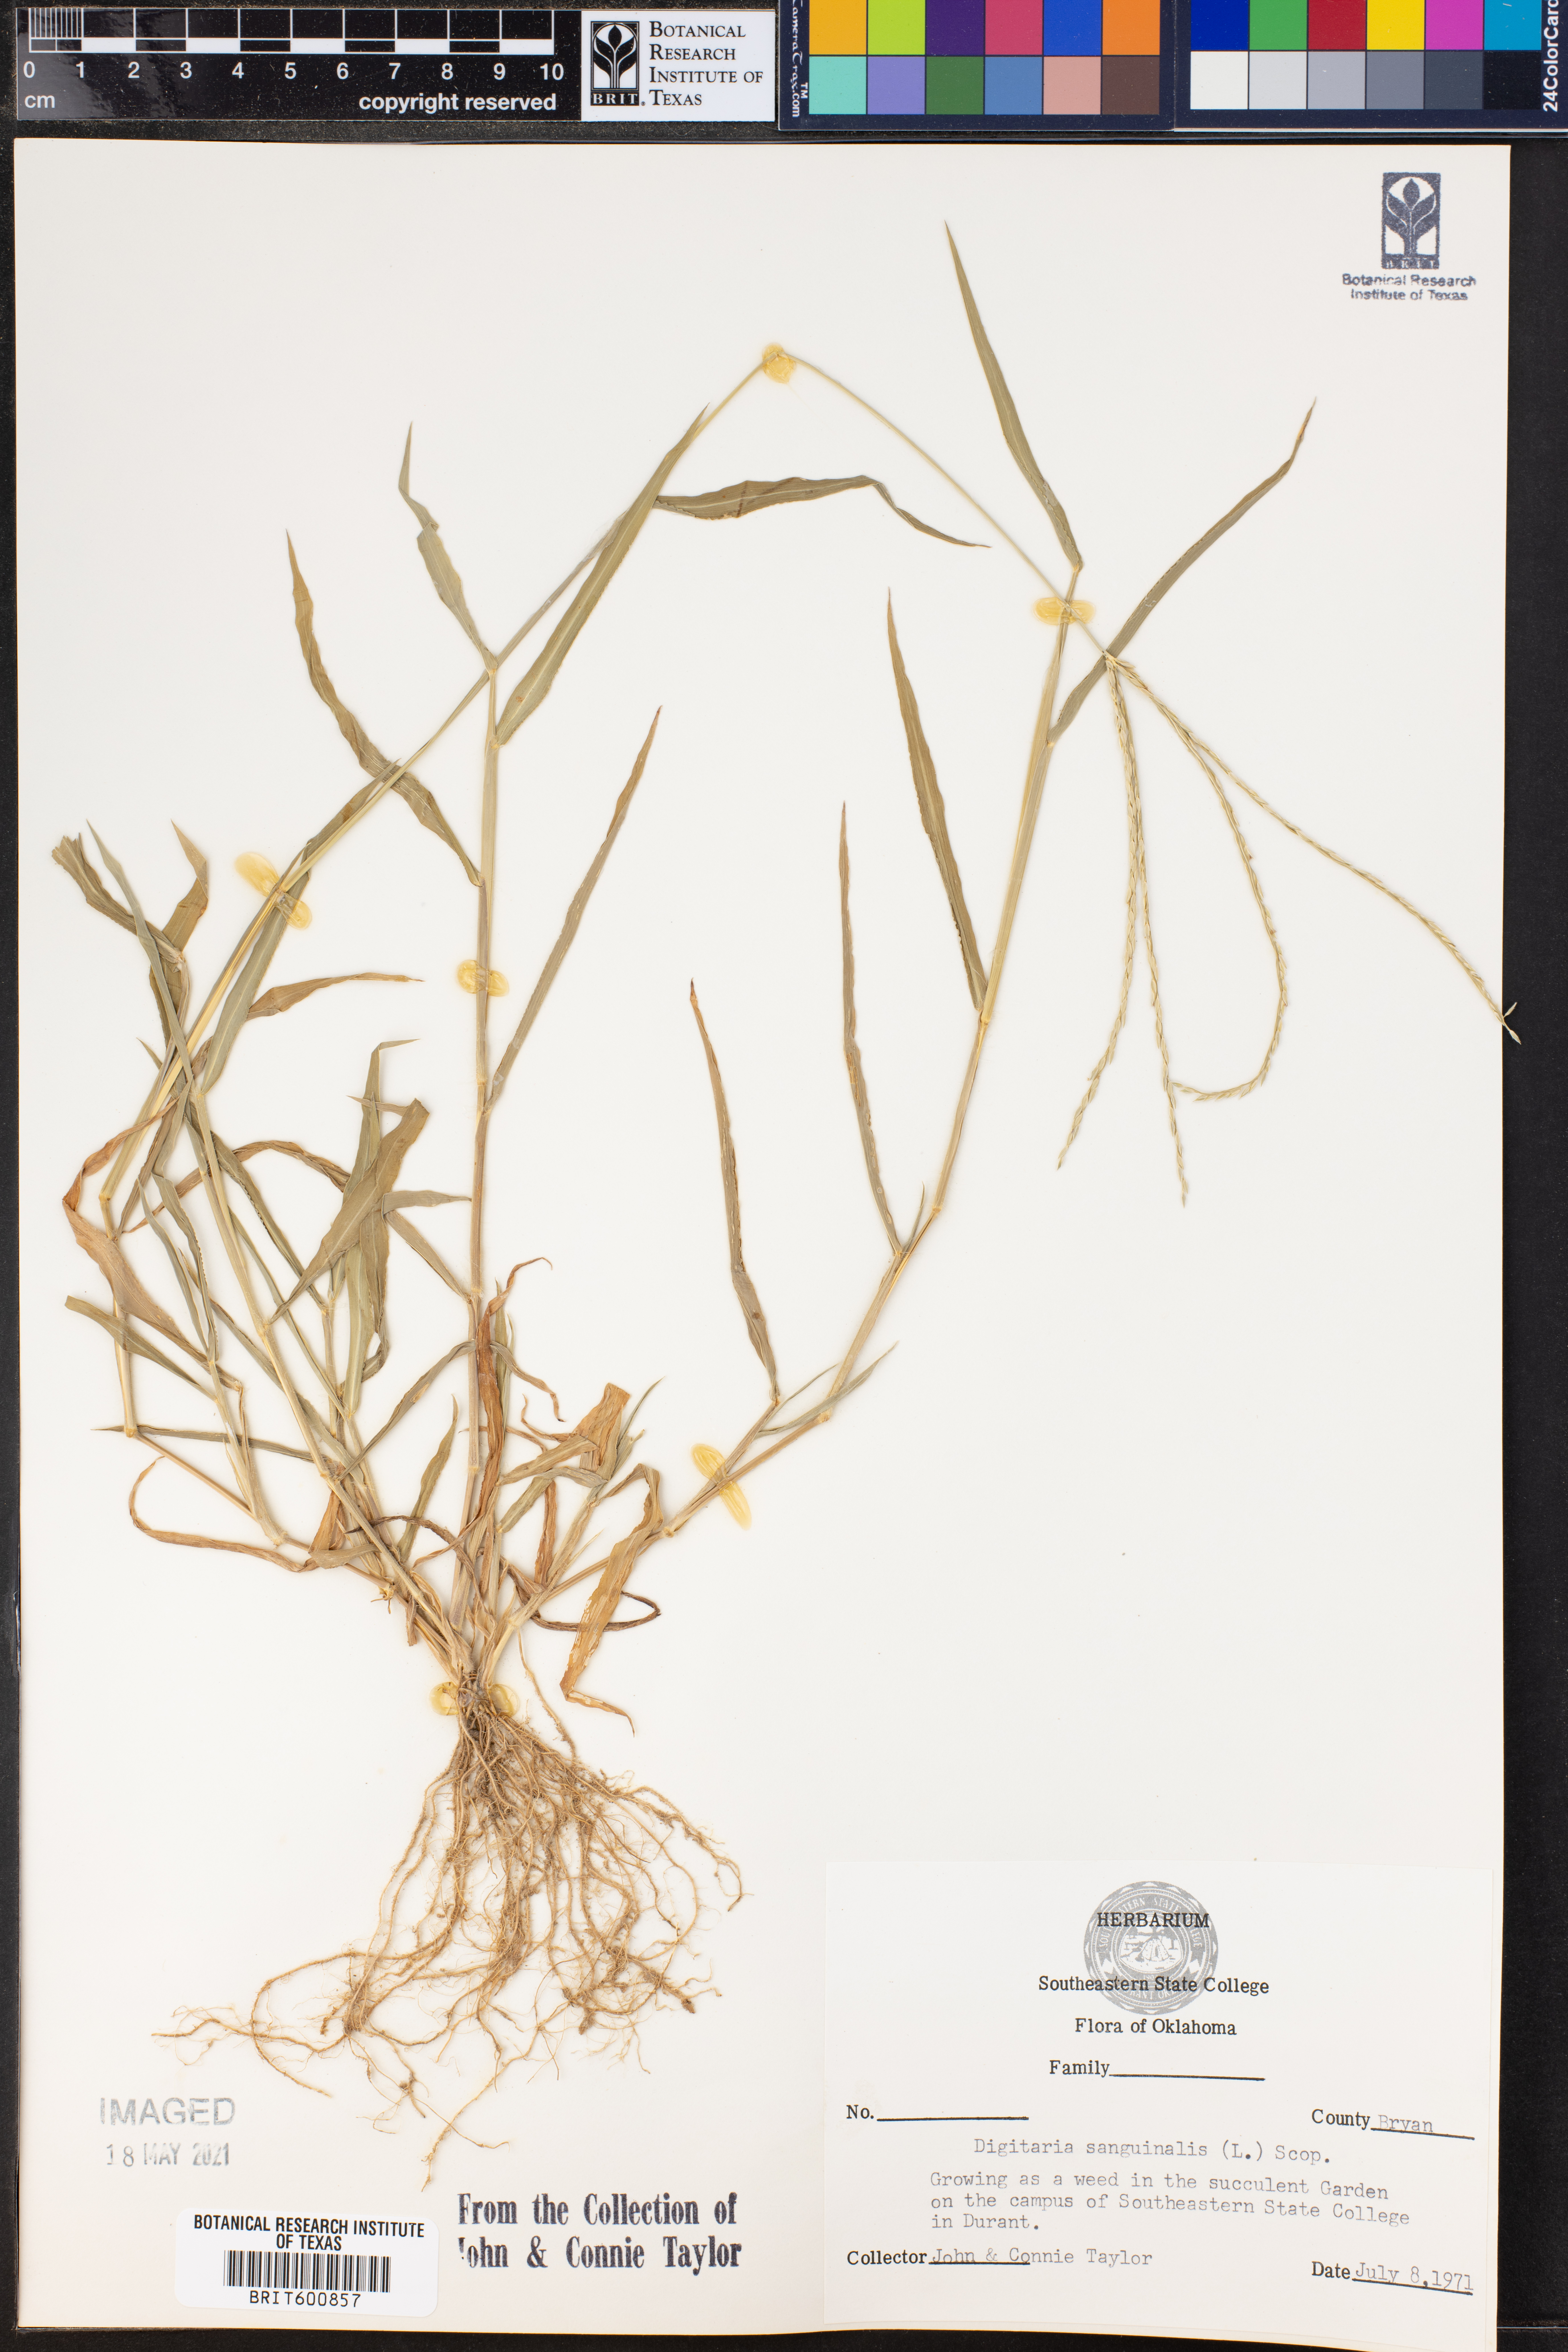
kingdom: Plantae
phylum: Tracheophyta
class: Liliopsida
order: Poales
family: Poaceae
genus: Digitaria
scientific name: Digitaria sanguinalis
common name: Hairy crabgrass
